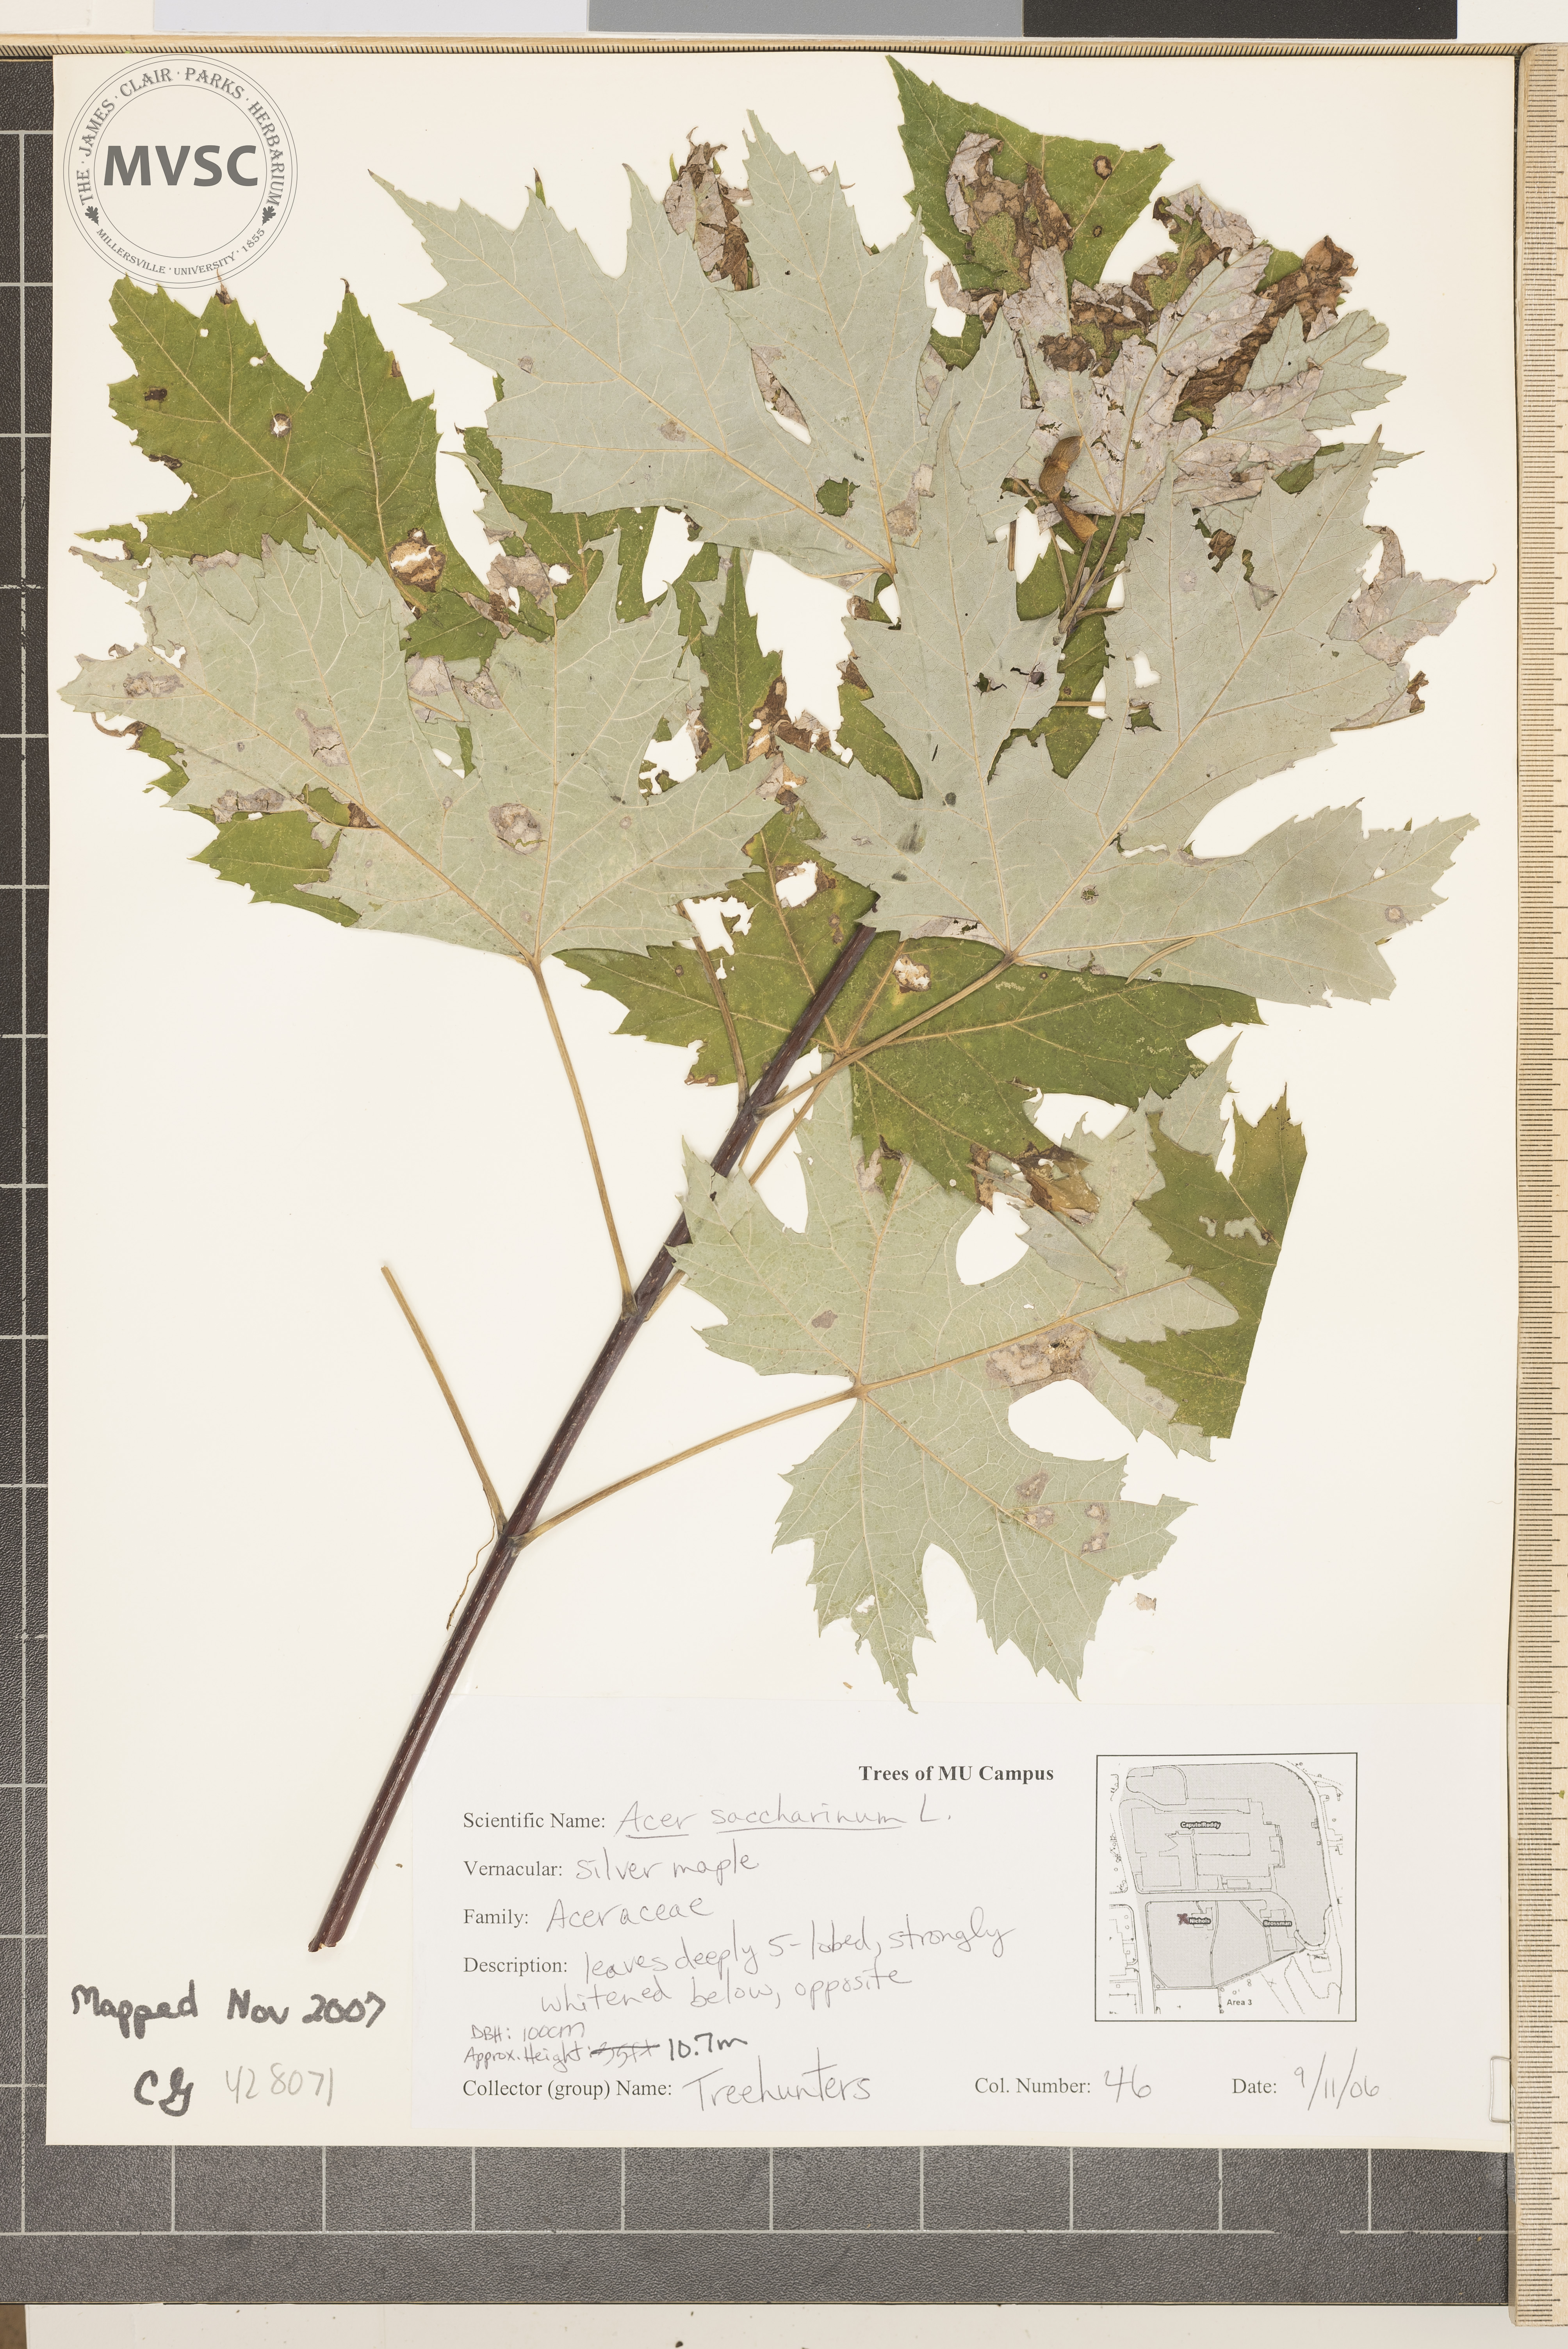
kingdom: Plantae
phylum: Tracheophyta
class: Magnoliopsida
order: Sapindales
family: Sapindaceae
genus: Acer
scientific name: Acer saccharinum
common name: Silver Maple
